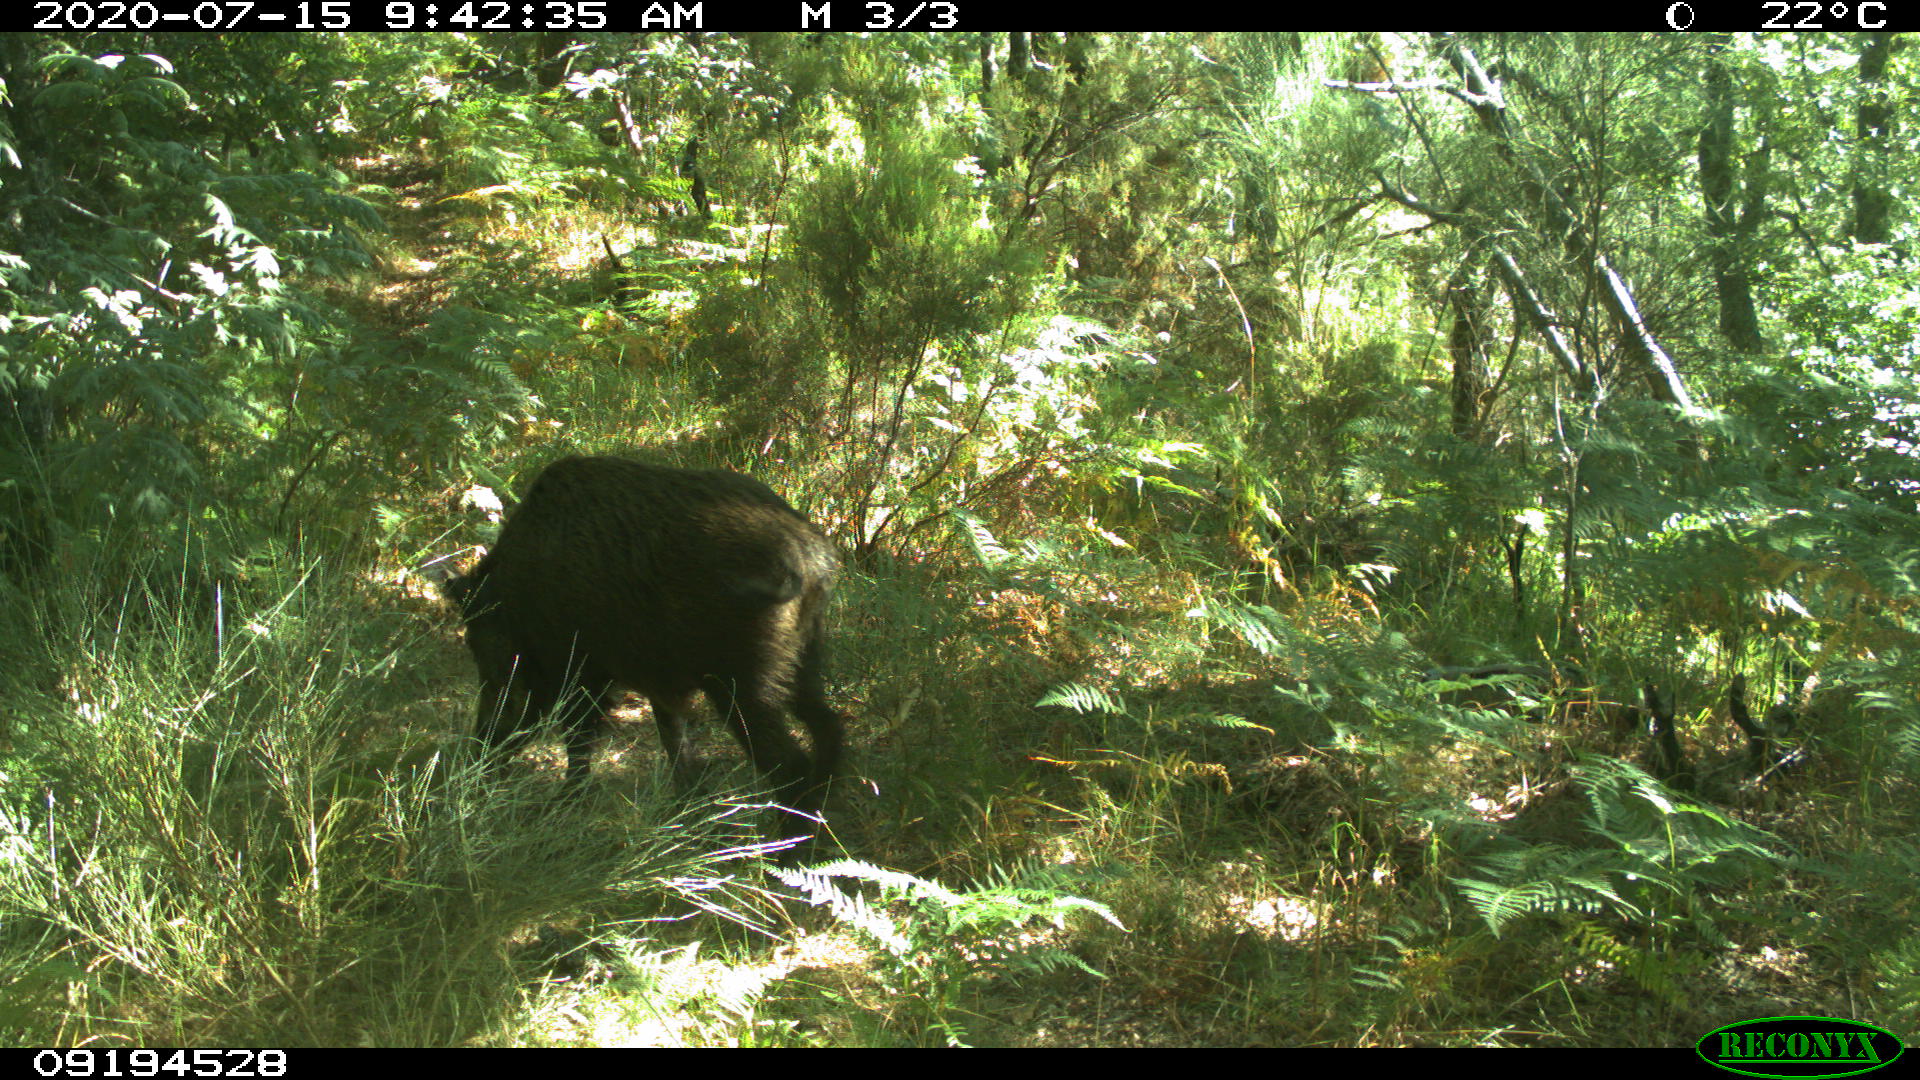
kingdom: Animalia
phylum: Chordata
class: Mammalia
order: Artiodactyla
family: Suidae
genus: Sus
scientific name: Sus scrofa
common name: Wild boar
